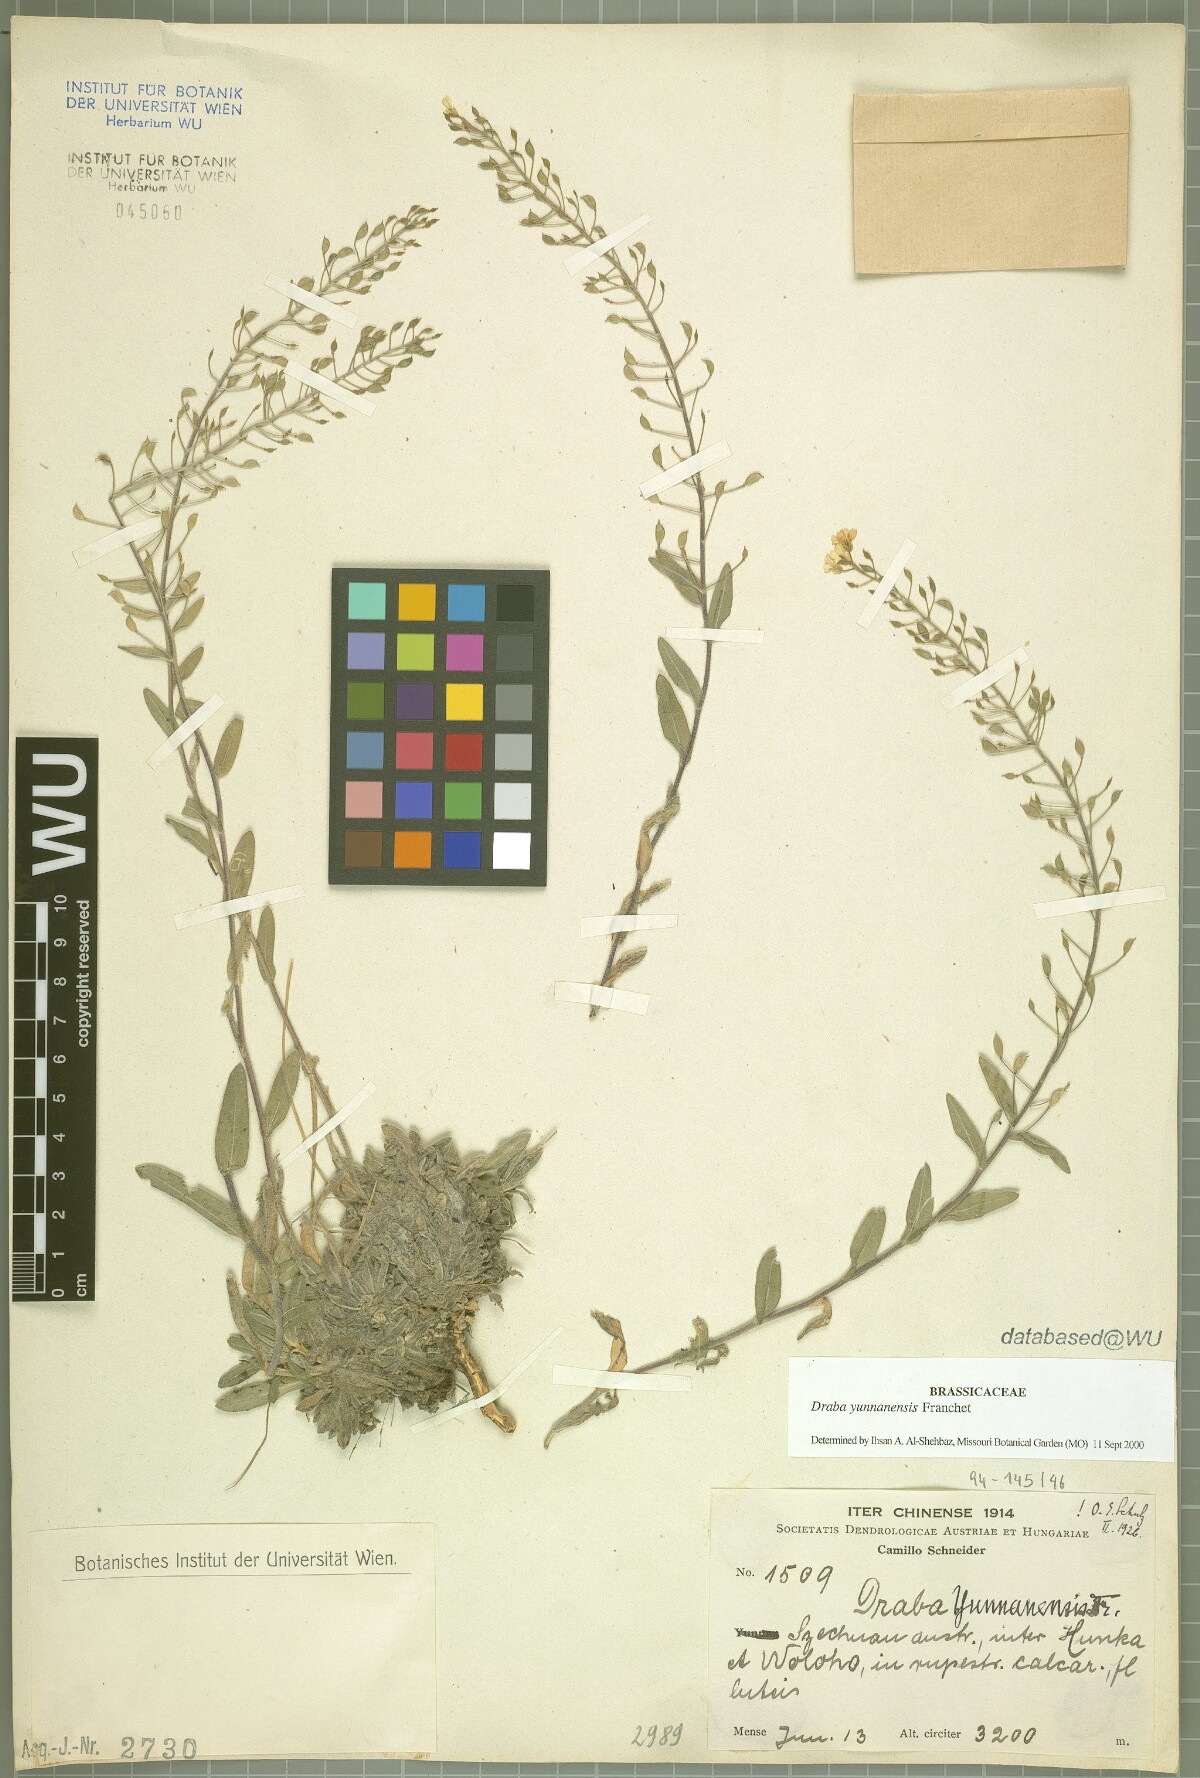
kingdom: Plantae
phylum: Tracheophyta
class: Magnoliopsida
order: Brassicales
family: Brassicaceae
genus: Draba
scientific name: Draba yunnanensis
